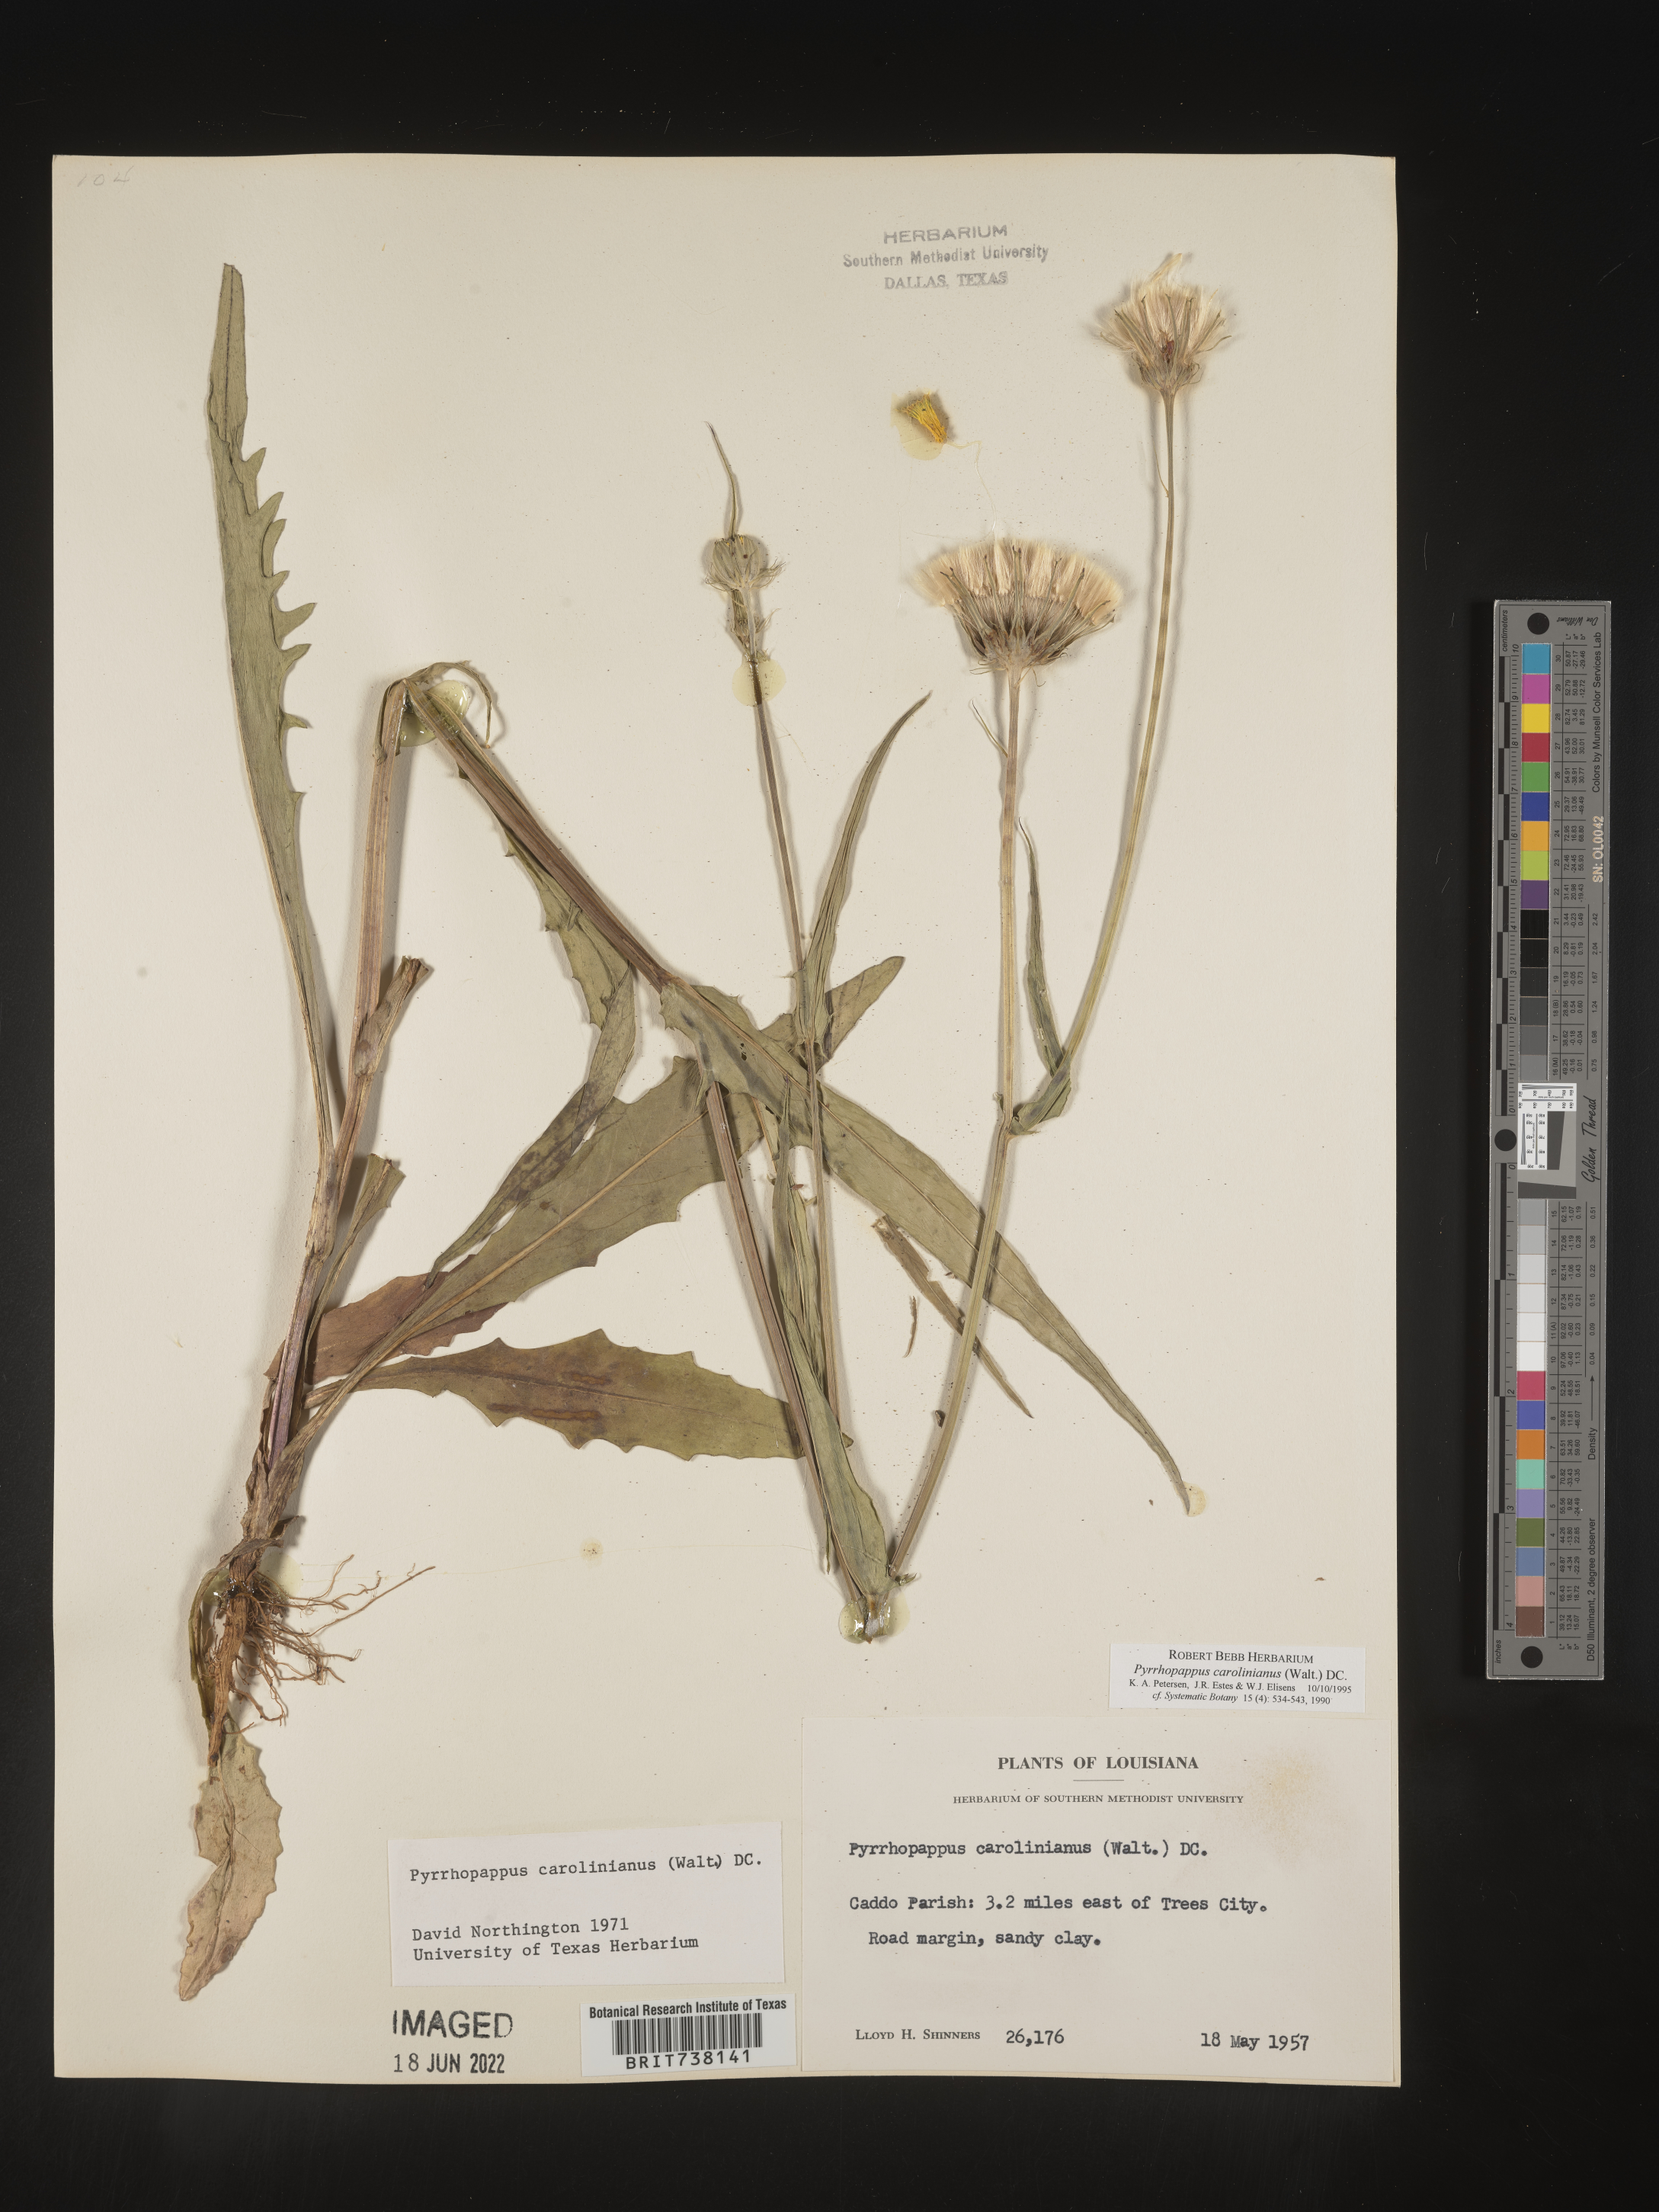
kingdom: Plantae
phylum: Tracheophyta
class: Magnoliopsida
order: Asterales
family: Asteraceae
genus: Pyrrhopappus
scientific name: Pyrrhopappus carolinianus
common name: Carolina desert-chicory
